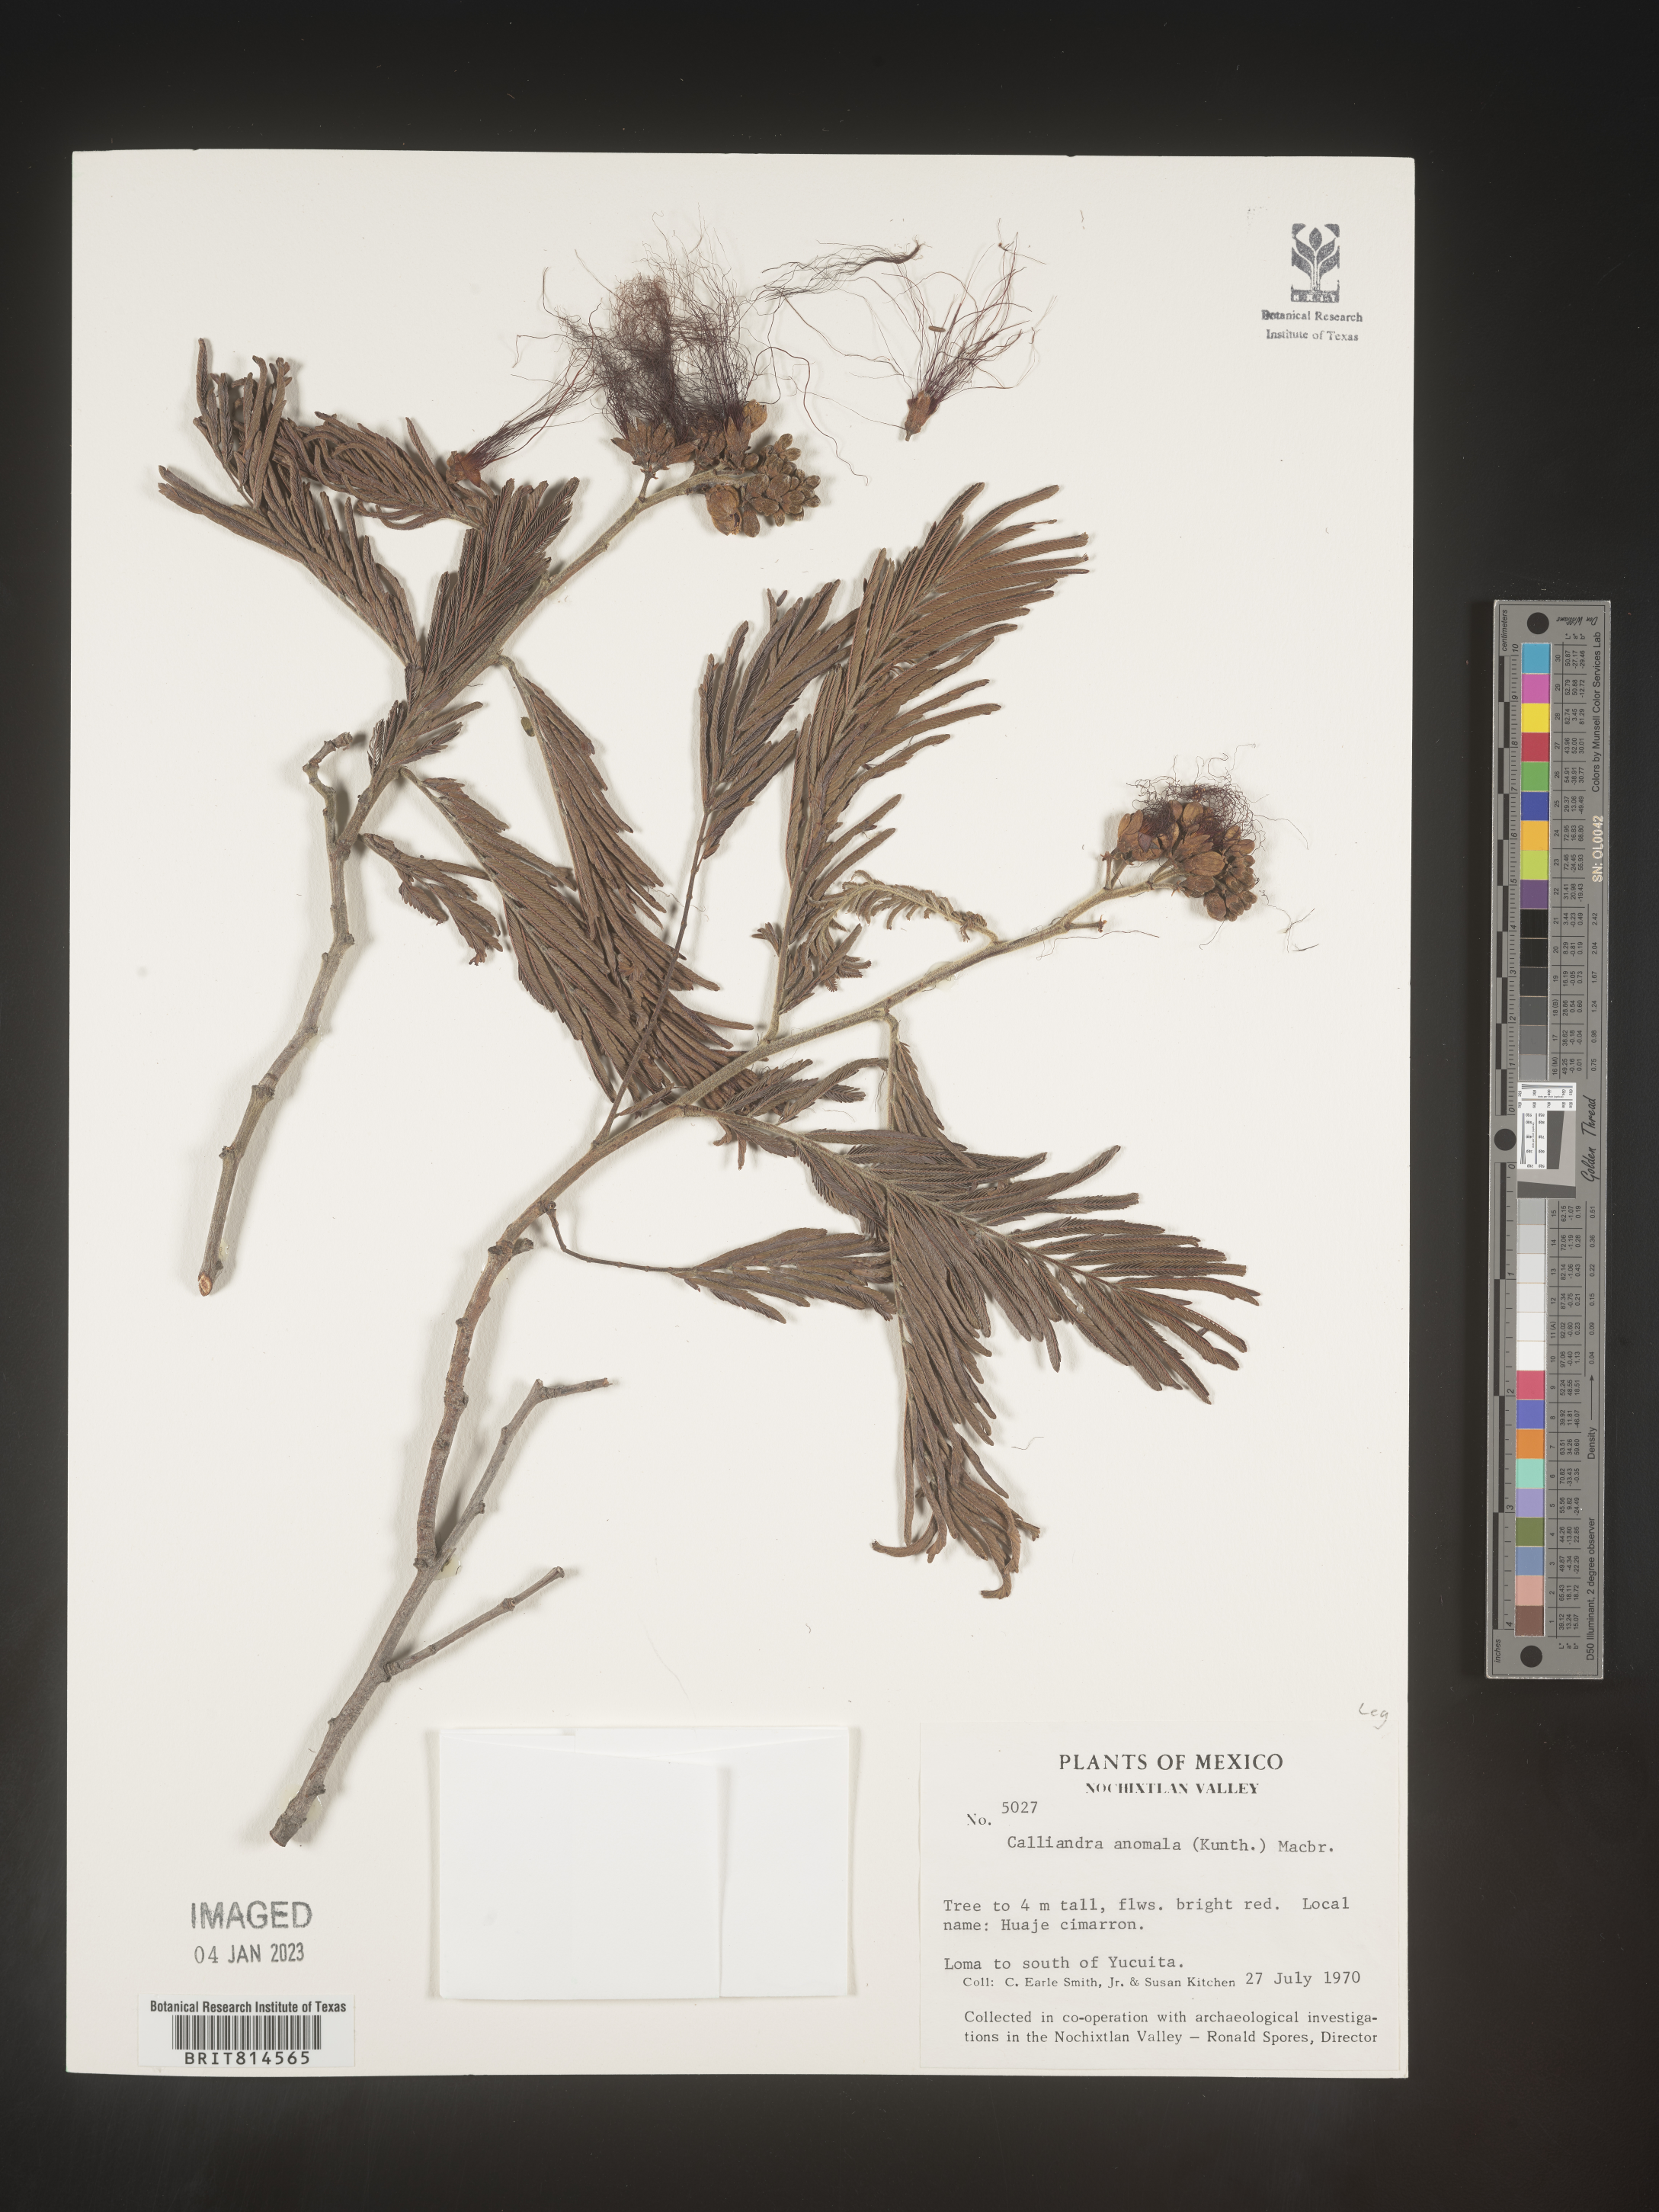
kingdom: Plantae
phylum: Tracheophyta
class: Magnoliopsida
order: Fabales
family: Fabaceae
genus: Calliandra
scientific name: Calliandra
